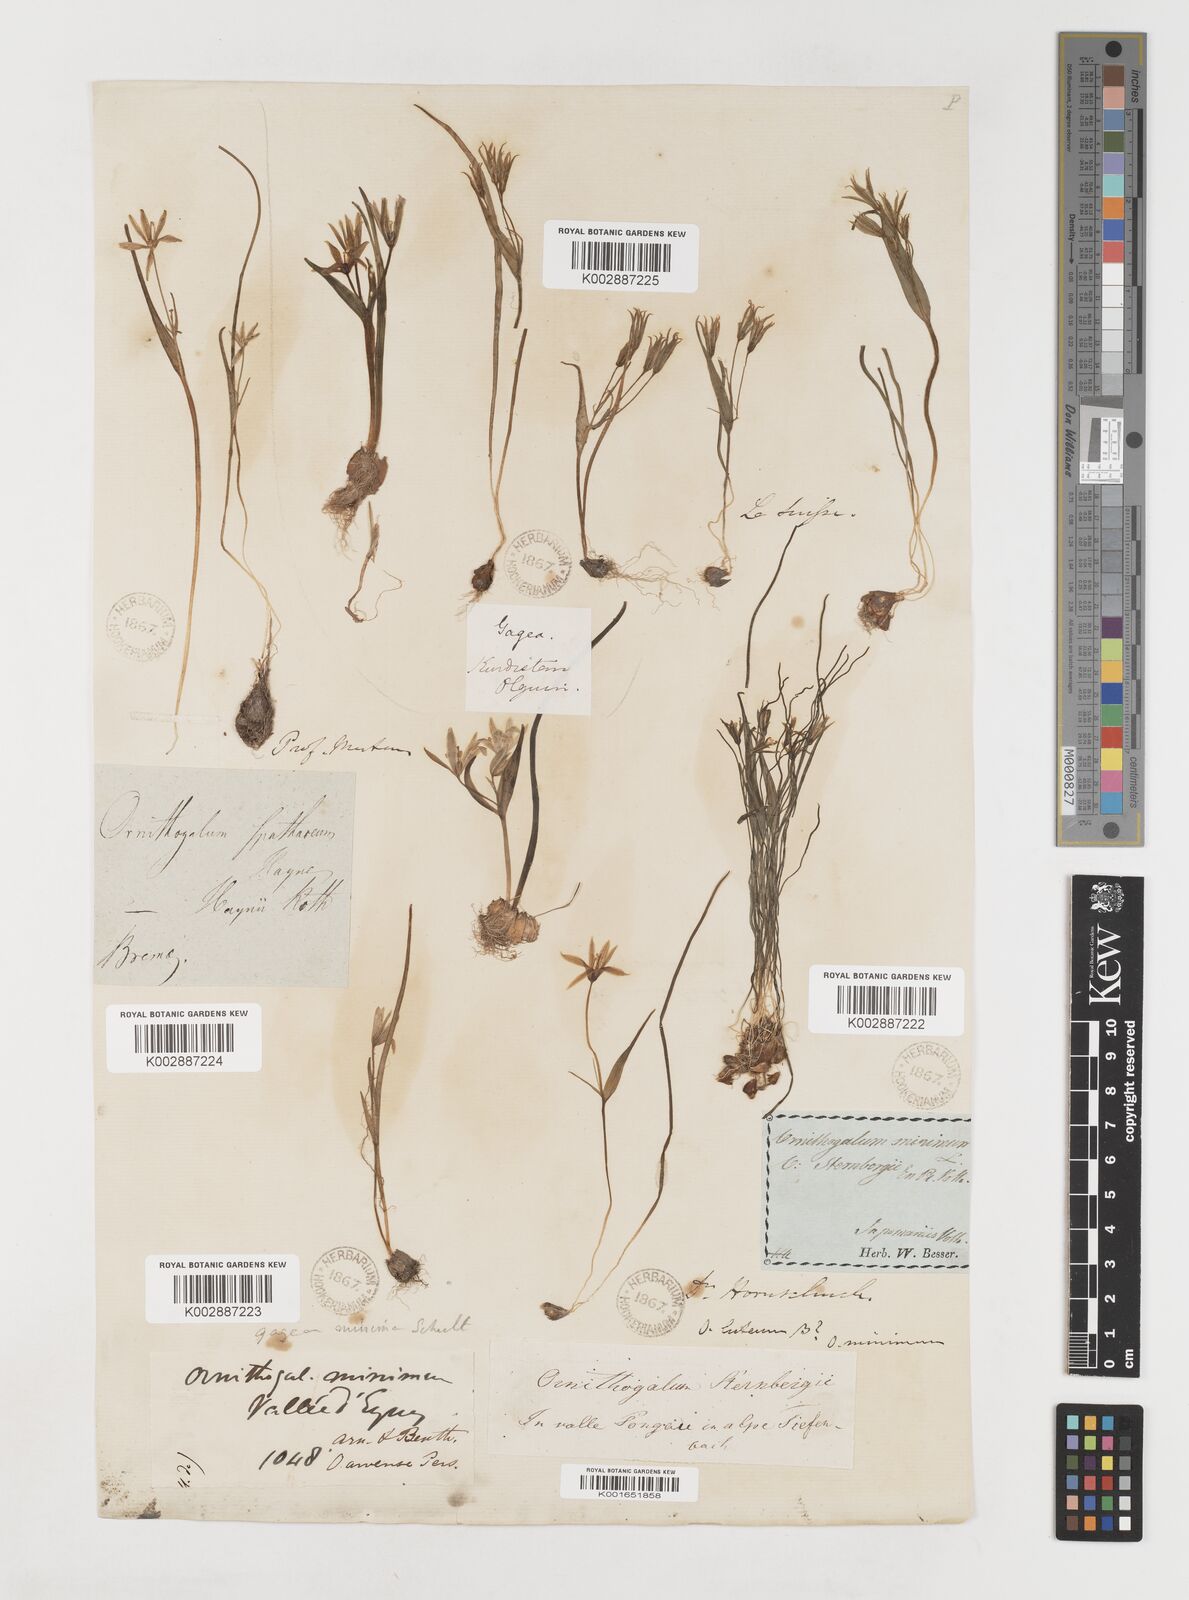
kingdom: Plantae
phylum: Tracheophyta
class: Liliopsida
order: Liliales
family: Liliaceae
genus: Gagea
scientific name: Gagea minima
